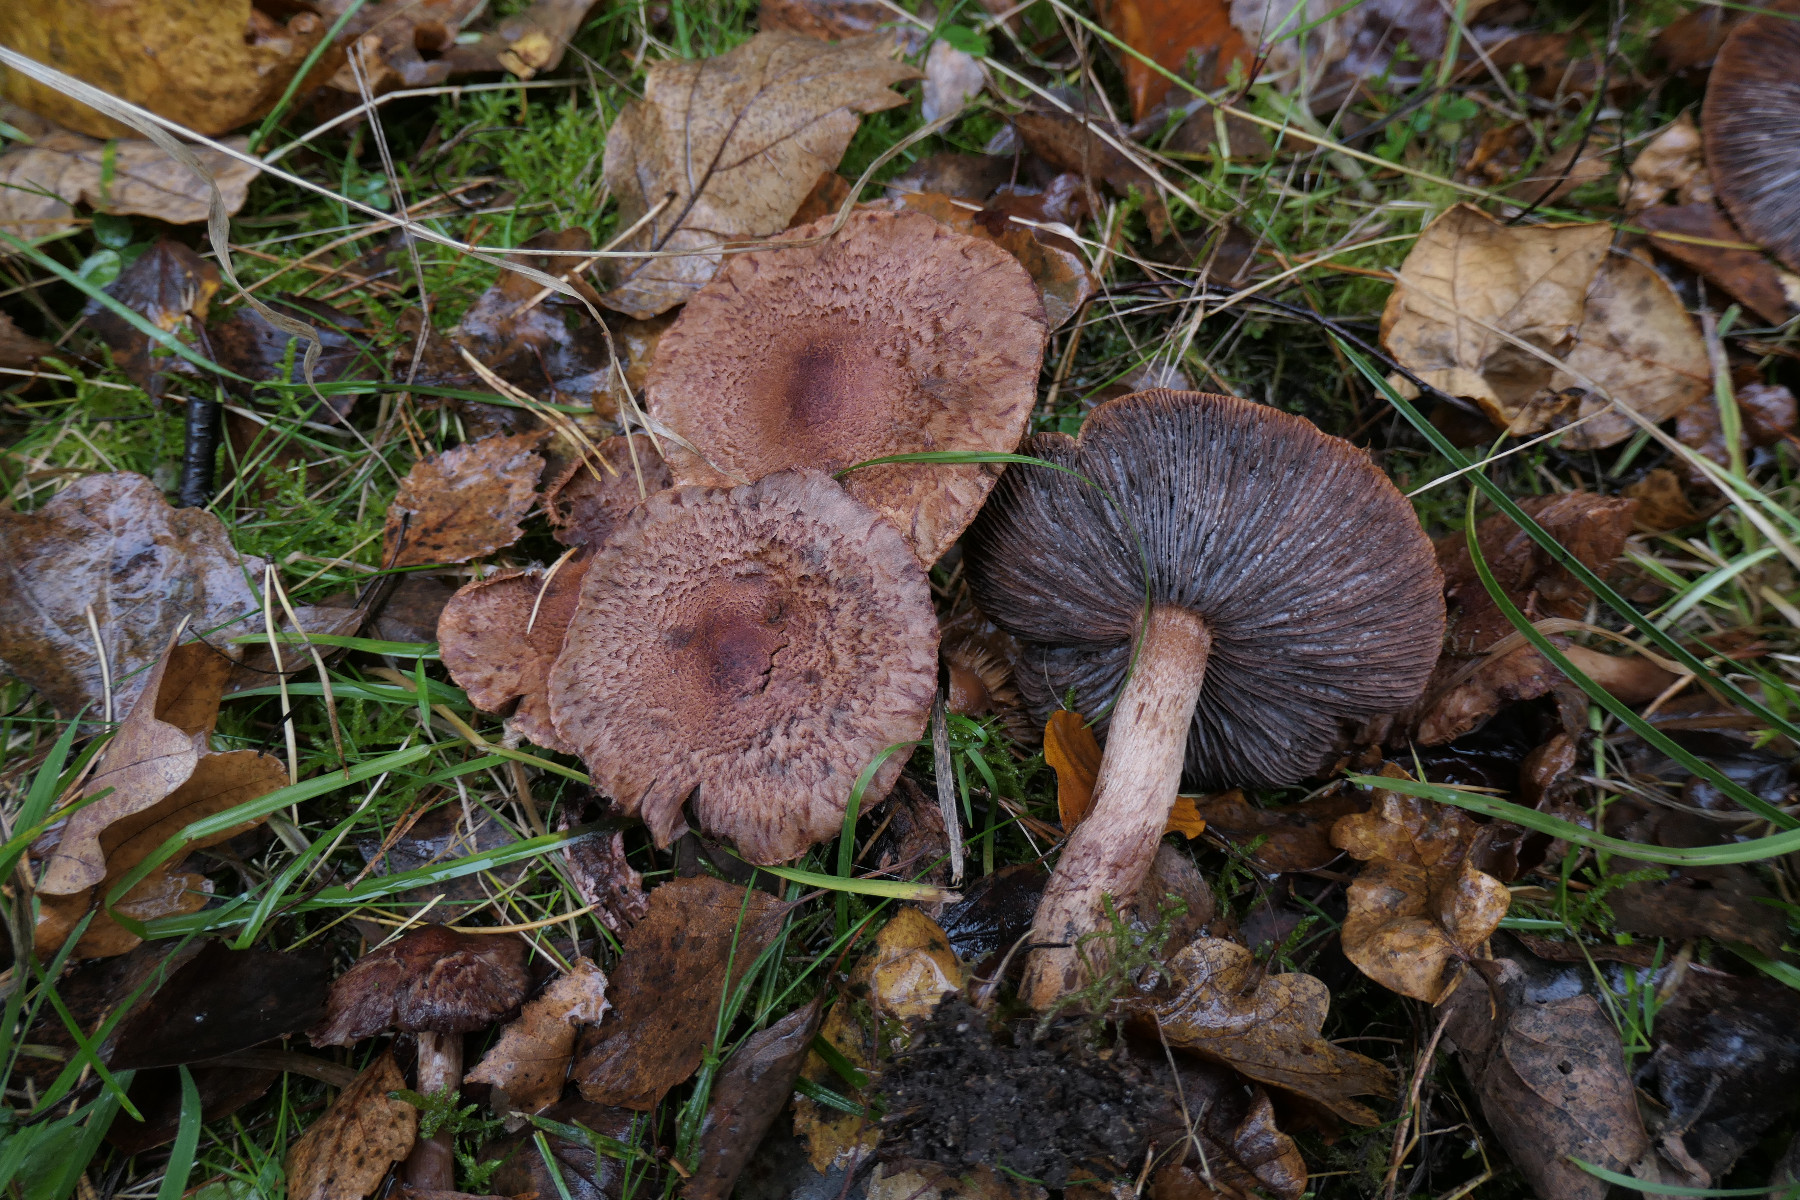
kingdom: Fungi
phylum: Basidiomycota
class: Agaricomycetes
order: Agaricales
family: Tricholomataceae
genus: Tricholoma
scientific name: Tricholoma vaccinum
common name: ko-ridderhat
